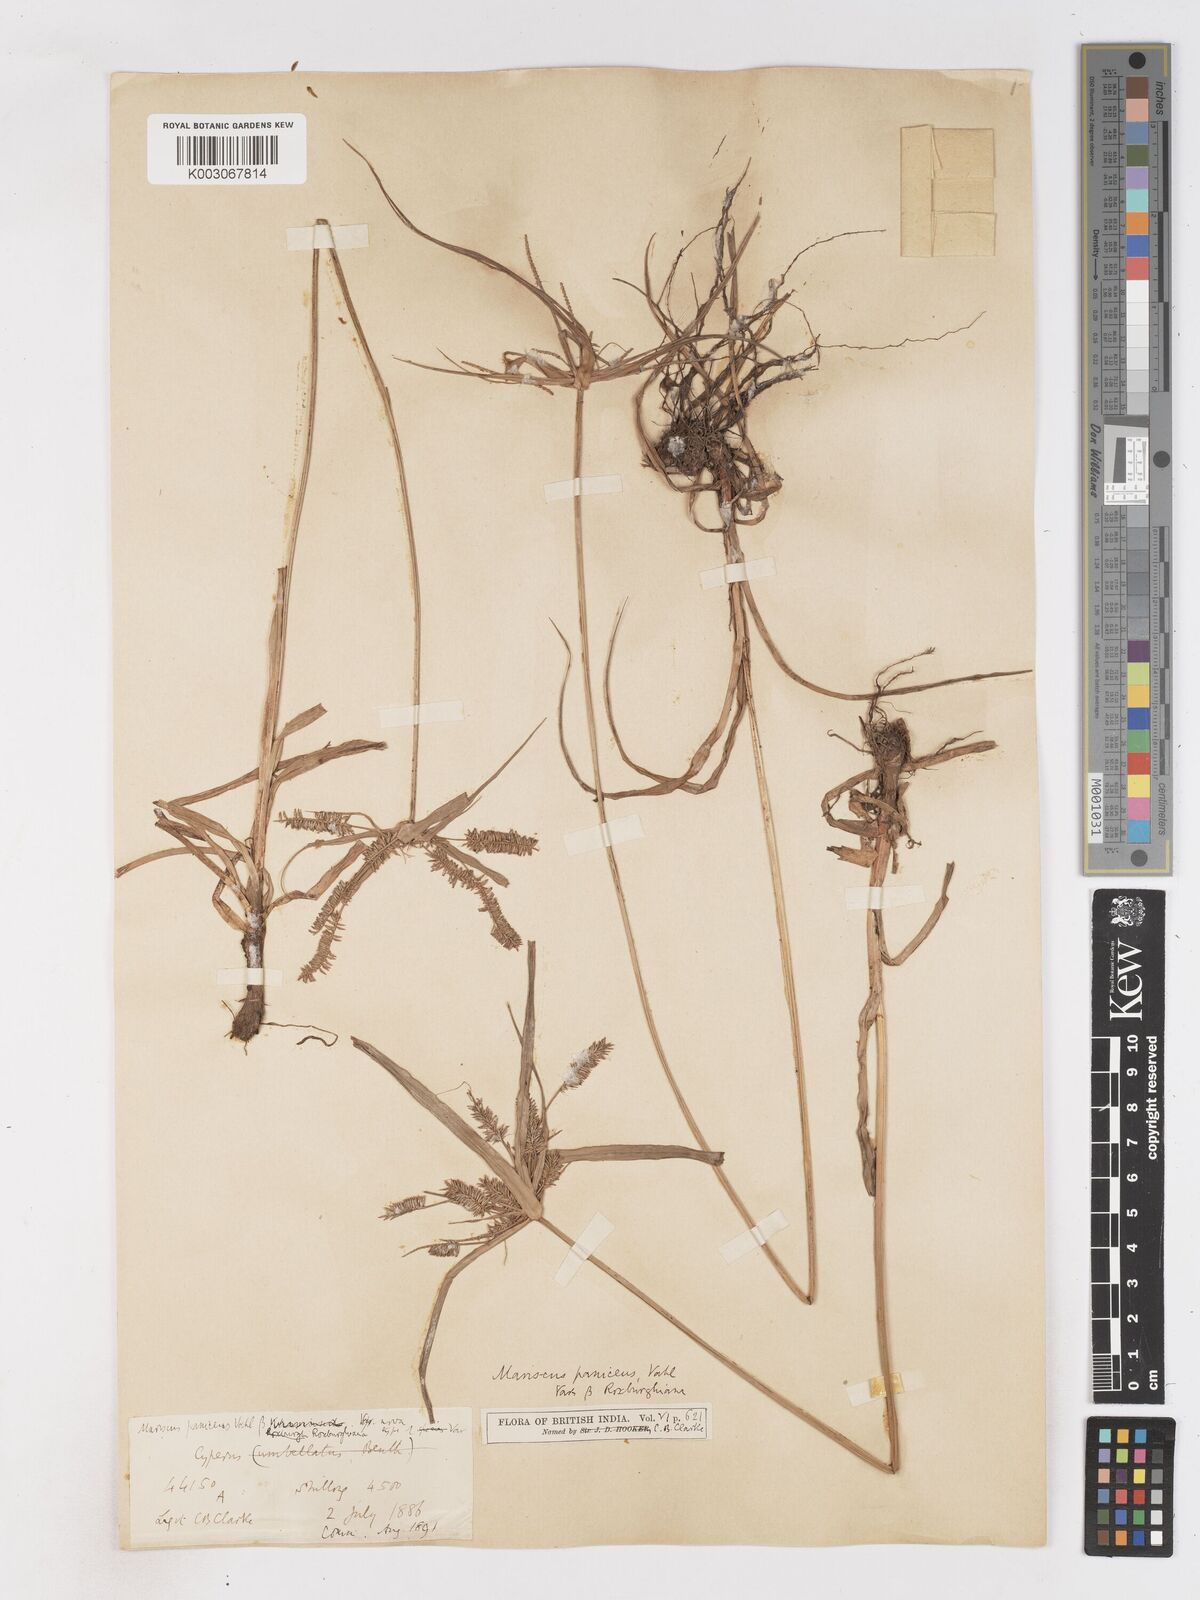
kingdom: Plantae
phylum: Tracheophyta
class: Liliopsida
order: Poales
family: Cyperaceae
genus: Cyperus
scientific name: Cyperus cyperoides
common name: Pacific island flat sedge
